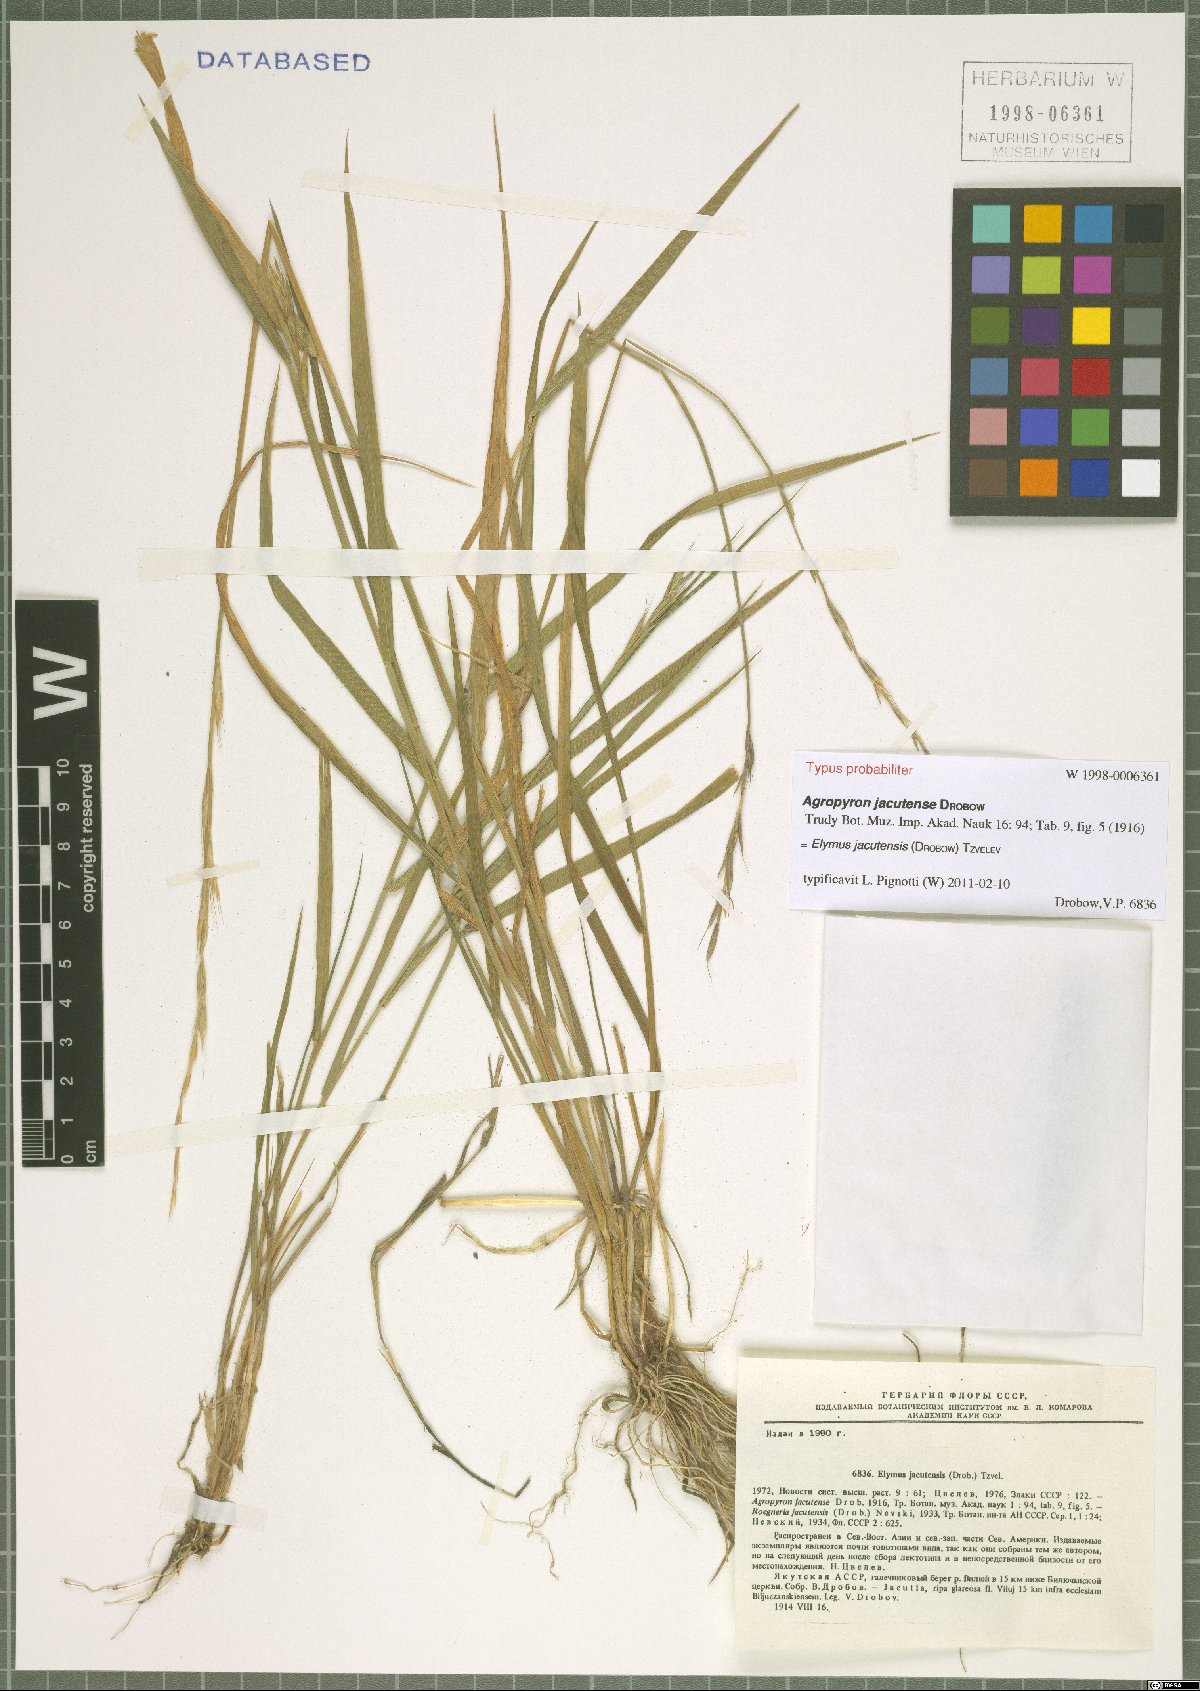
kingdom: Plantae
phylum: Tracheophyta
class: Liliopsida
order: Poales
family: Poaceae
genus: Elymus
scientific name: Elymus jacutensis
